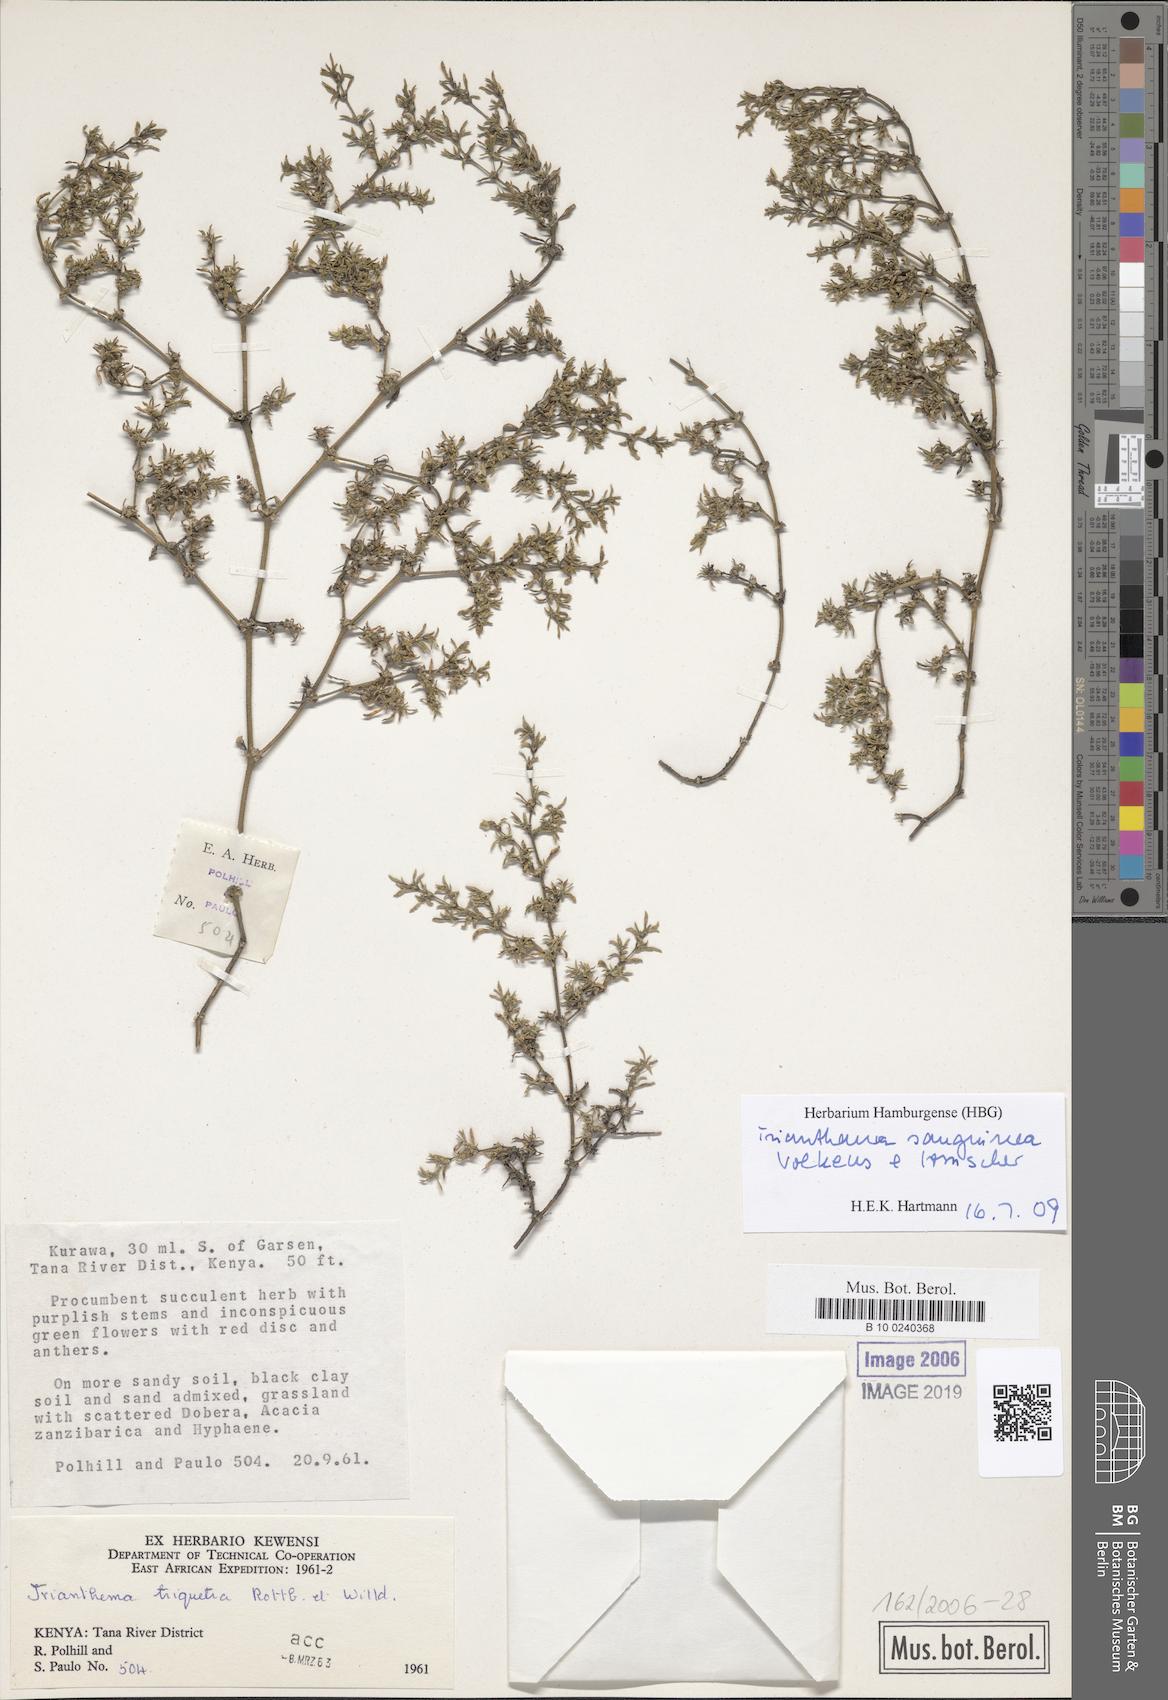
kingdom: Plantae
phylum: Tracheophyta
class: Magnoliopsida
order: Caryophyllales
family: Aizoaceae
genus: Trianthema
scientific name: Trianthema triquetrum
